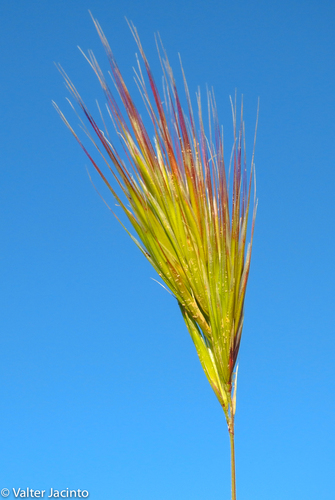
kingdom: Plantae
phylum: Tracheophyta
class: Liliopsida
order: Poales
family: Poaceae
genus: Bromus
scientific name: Bromus rubens
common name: Red brome
